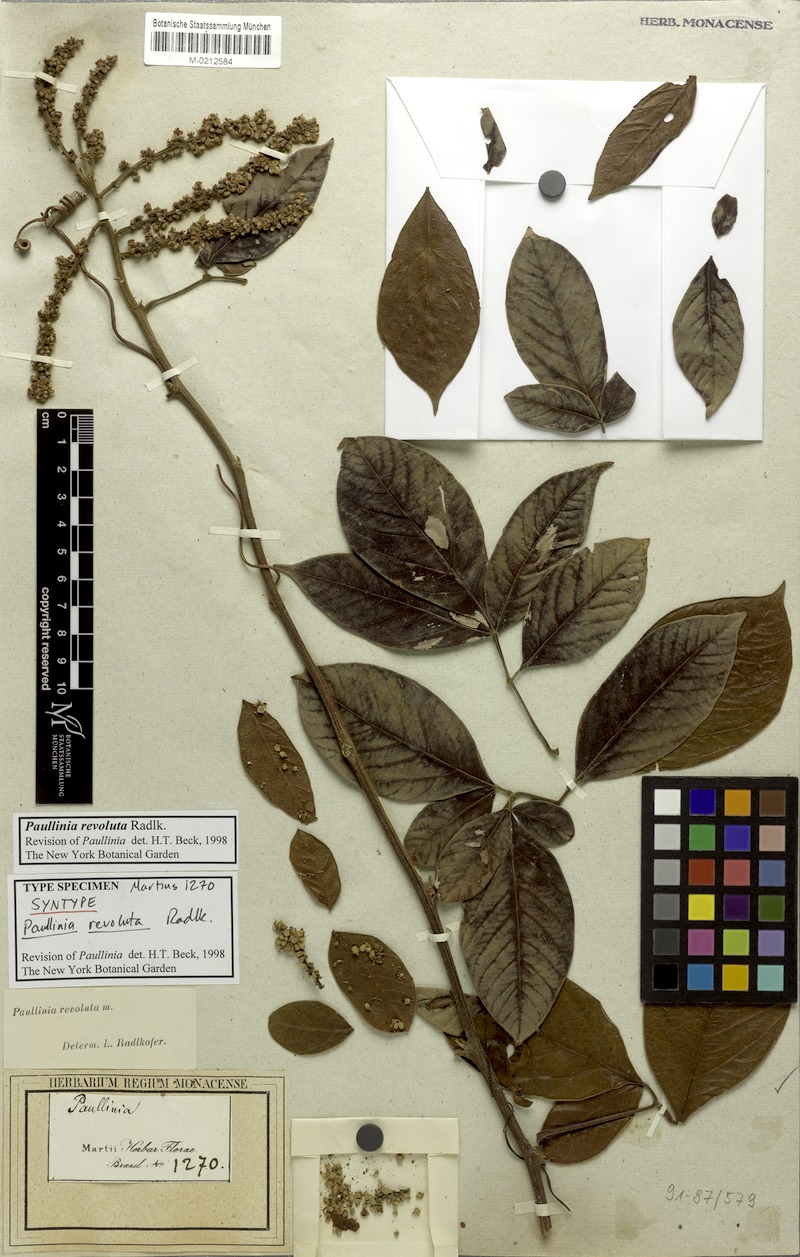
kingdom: Plantae
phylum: Tracheophyta
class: Magnoliopsida
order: Sapindales
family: Sapindaceae
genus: Paullinia
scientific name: Paullinia revoluta
